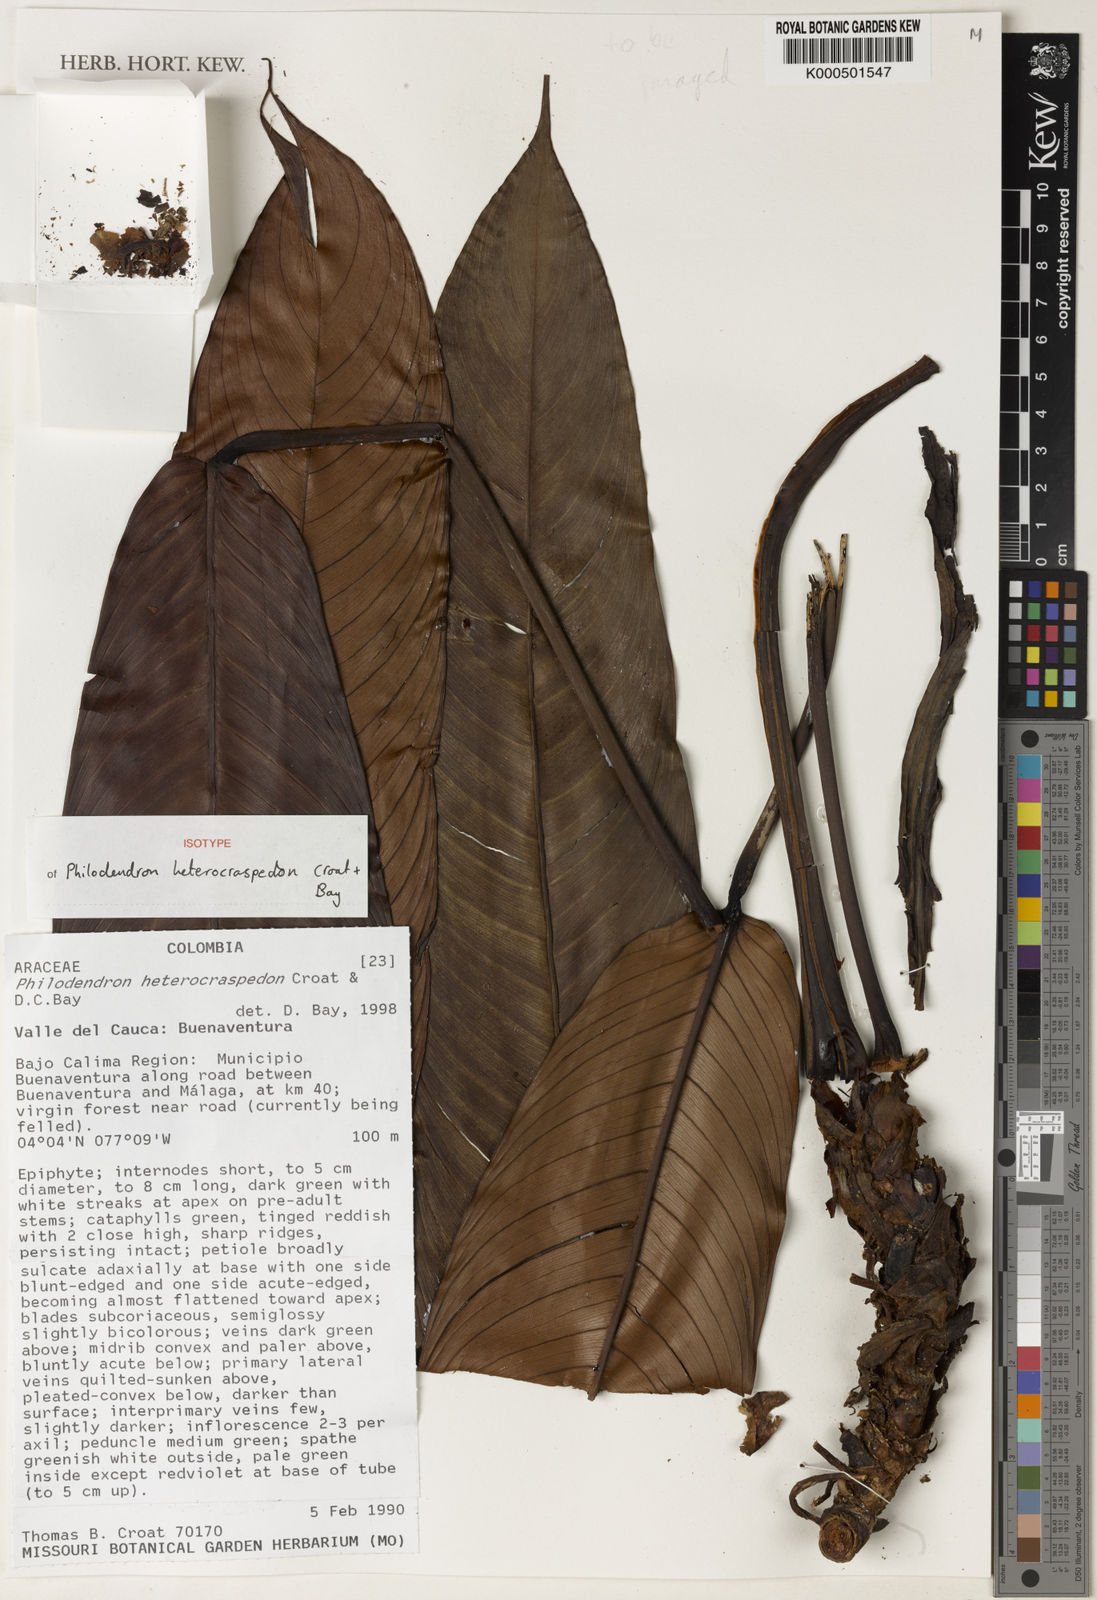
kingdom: Plantae
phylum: Tracheophyta
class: Liliopsida
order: Alismatales
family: Araceae
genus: Philodendron
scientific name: Philodendron heterocraspedon
